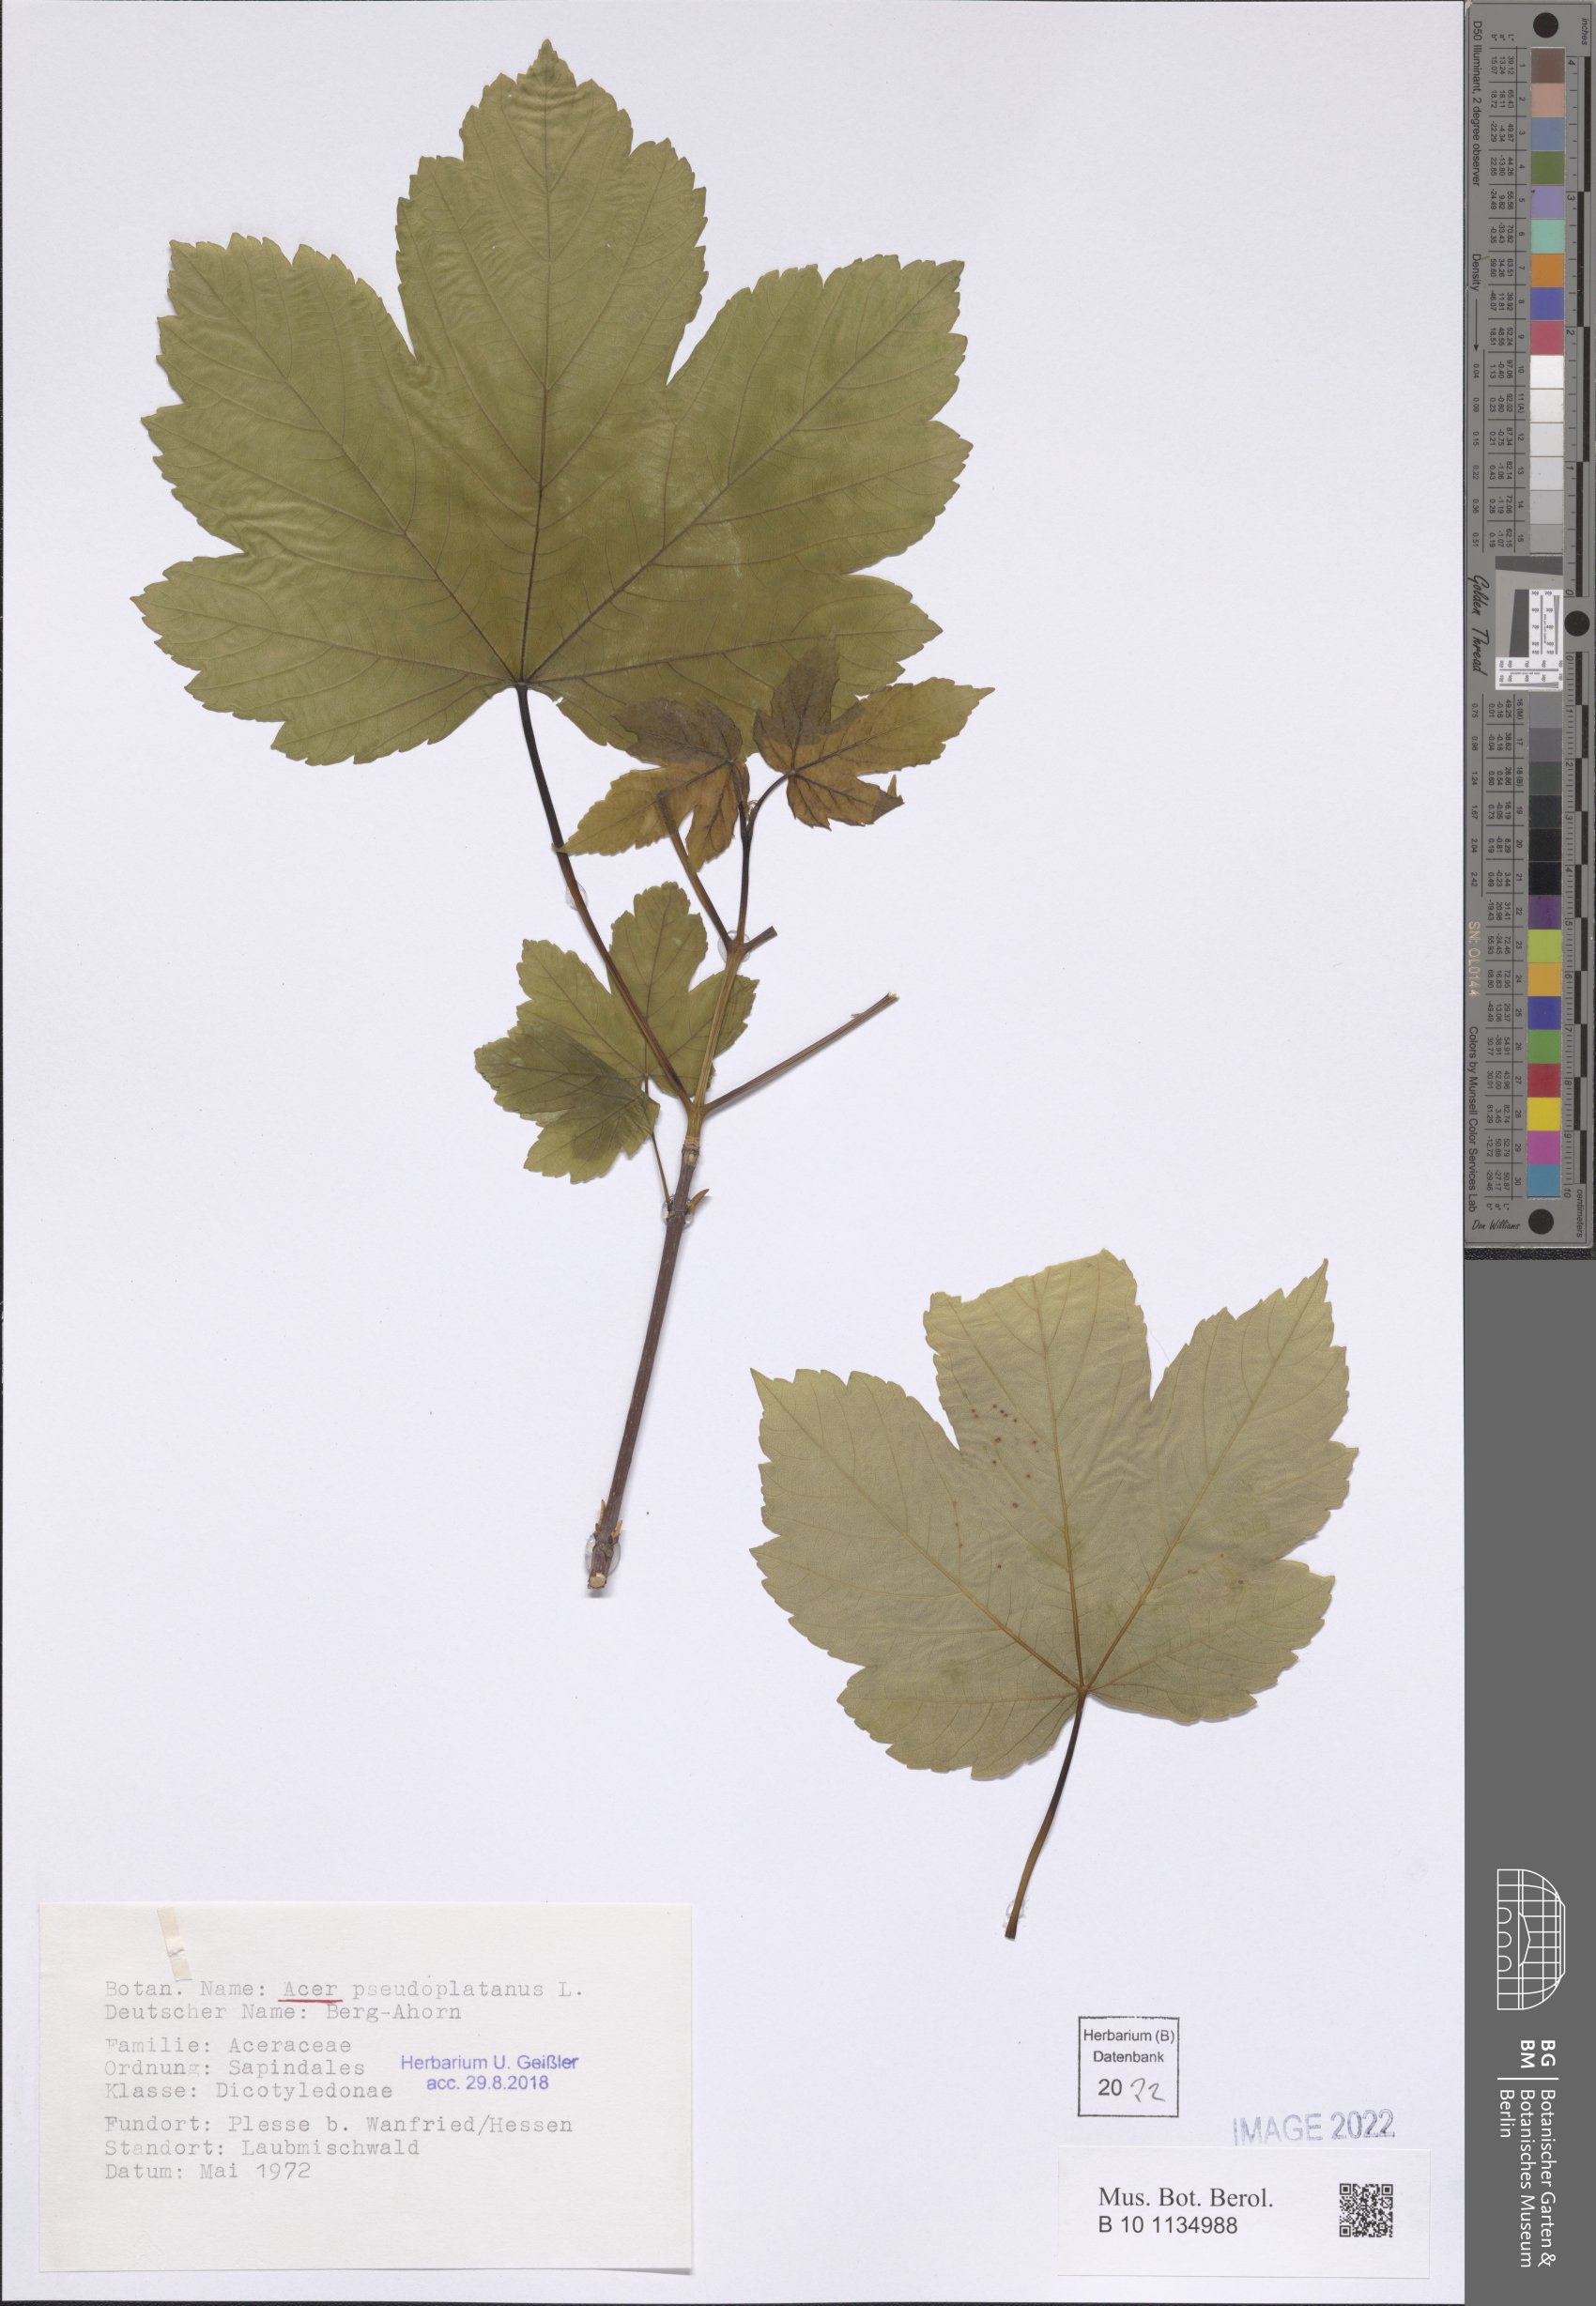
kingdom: Plantae
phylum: Tracheophyta
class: Magnoliopsida
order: Sapindales
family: Sapindaceae
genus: Acer
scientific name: Acer pseudoplatanus
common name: Sycamore
